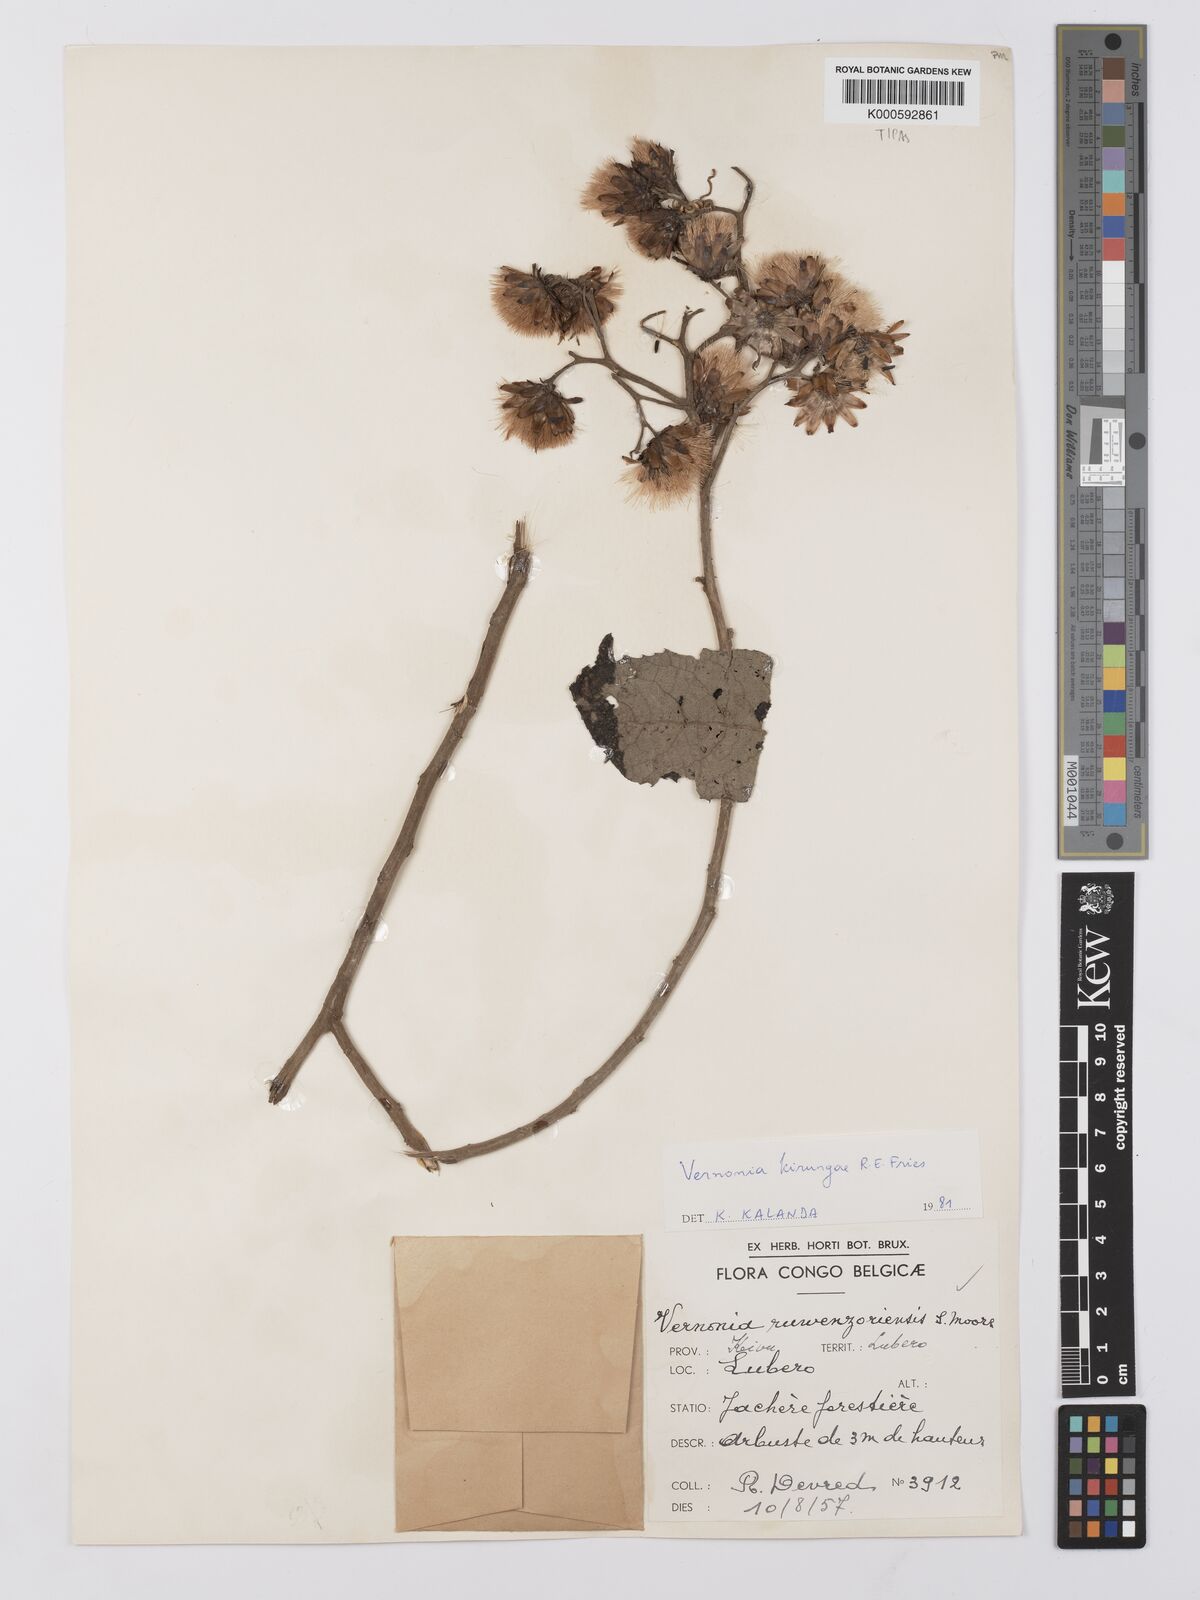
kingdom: Plantae
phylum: Tracheophyta
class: Magnoliopsida
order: Asterales
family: Asteraceae
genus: Baccharoides
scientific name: Baccharoides kirungae
